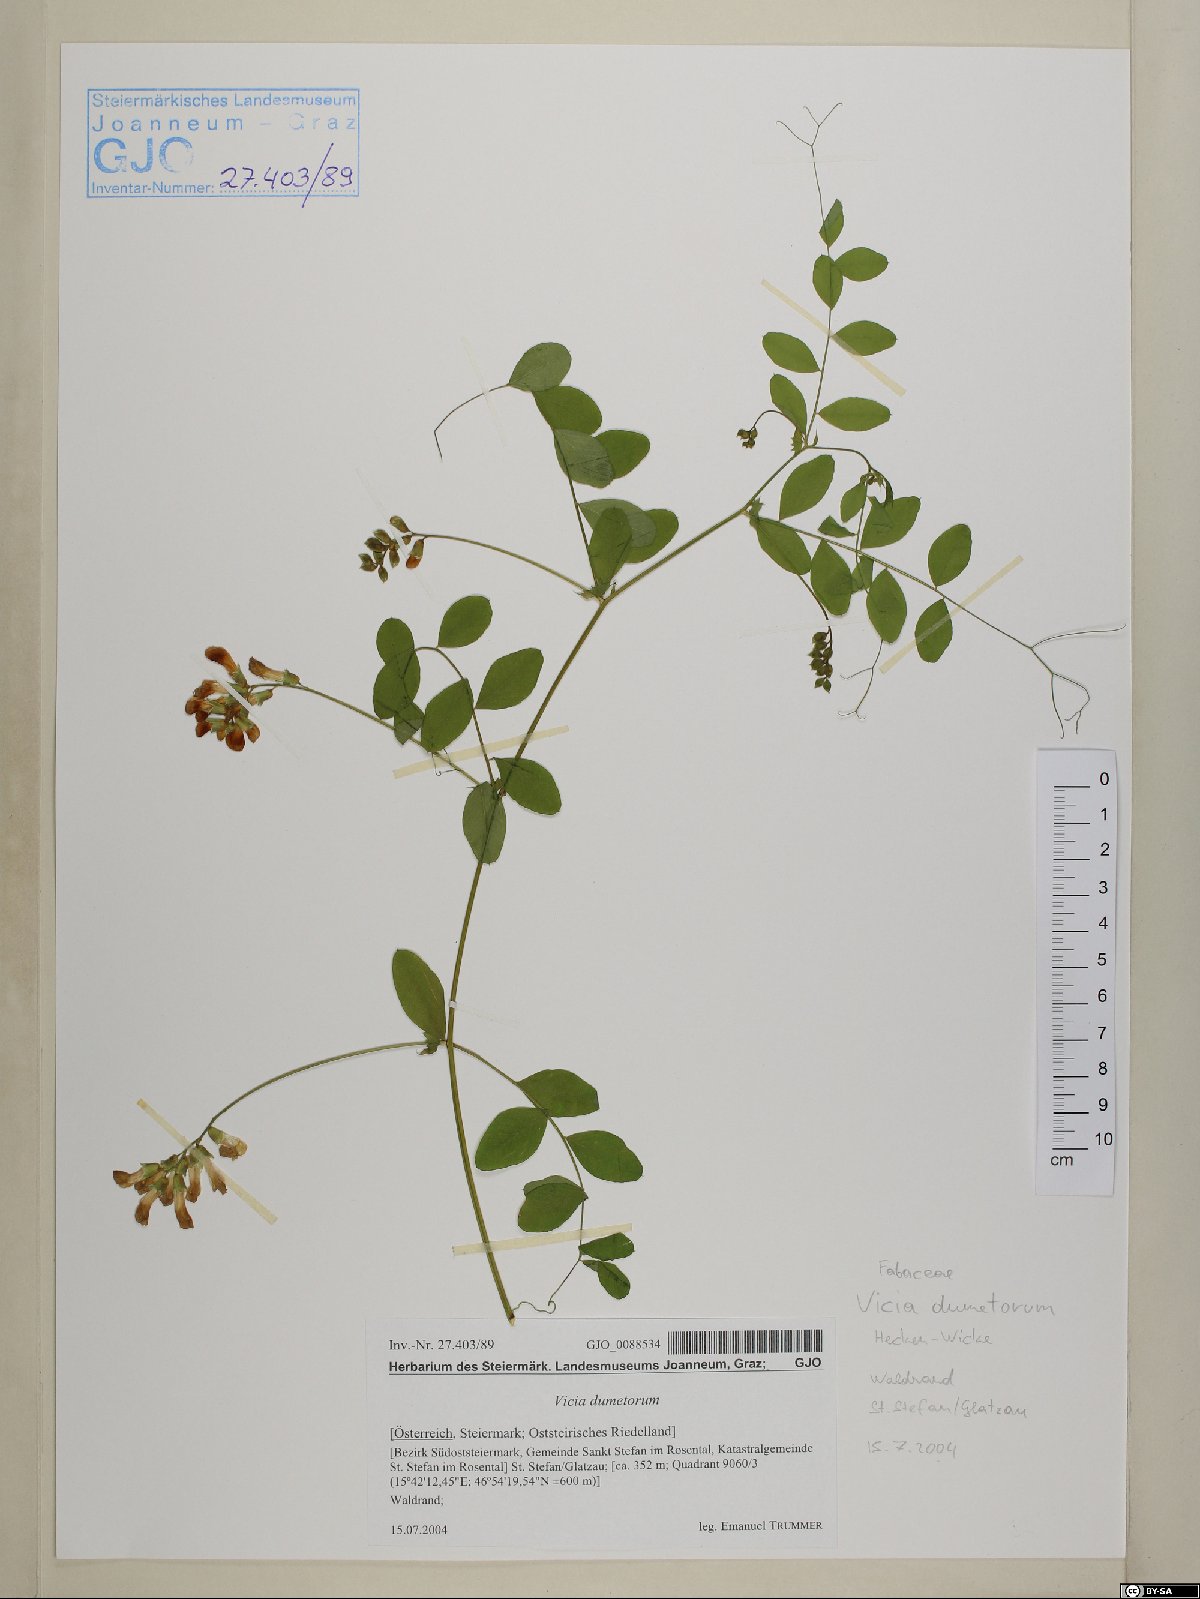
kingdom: Plantae
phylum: Tracheophyta
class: Magnoliopsida
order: Fabales
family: Fabaceae
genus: Vicia
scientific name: Vicia dumetorum
